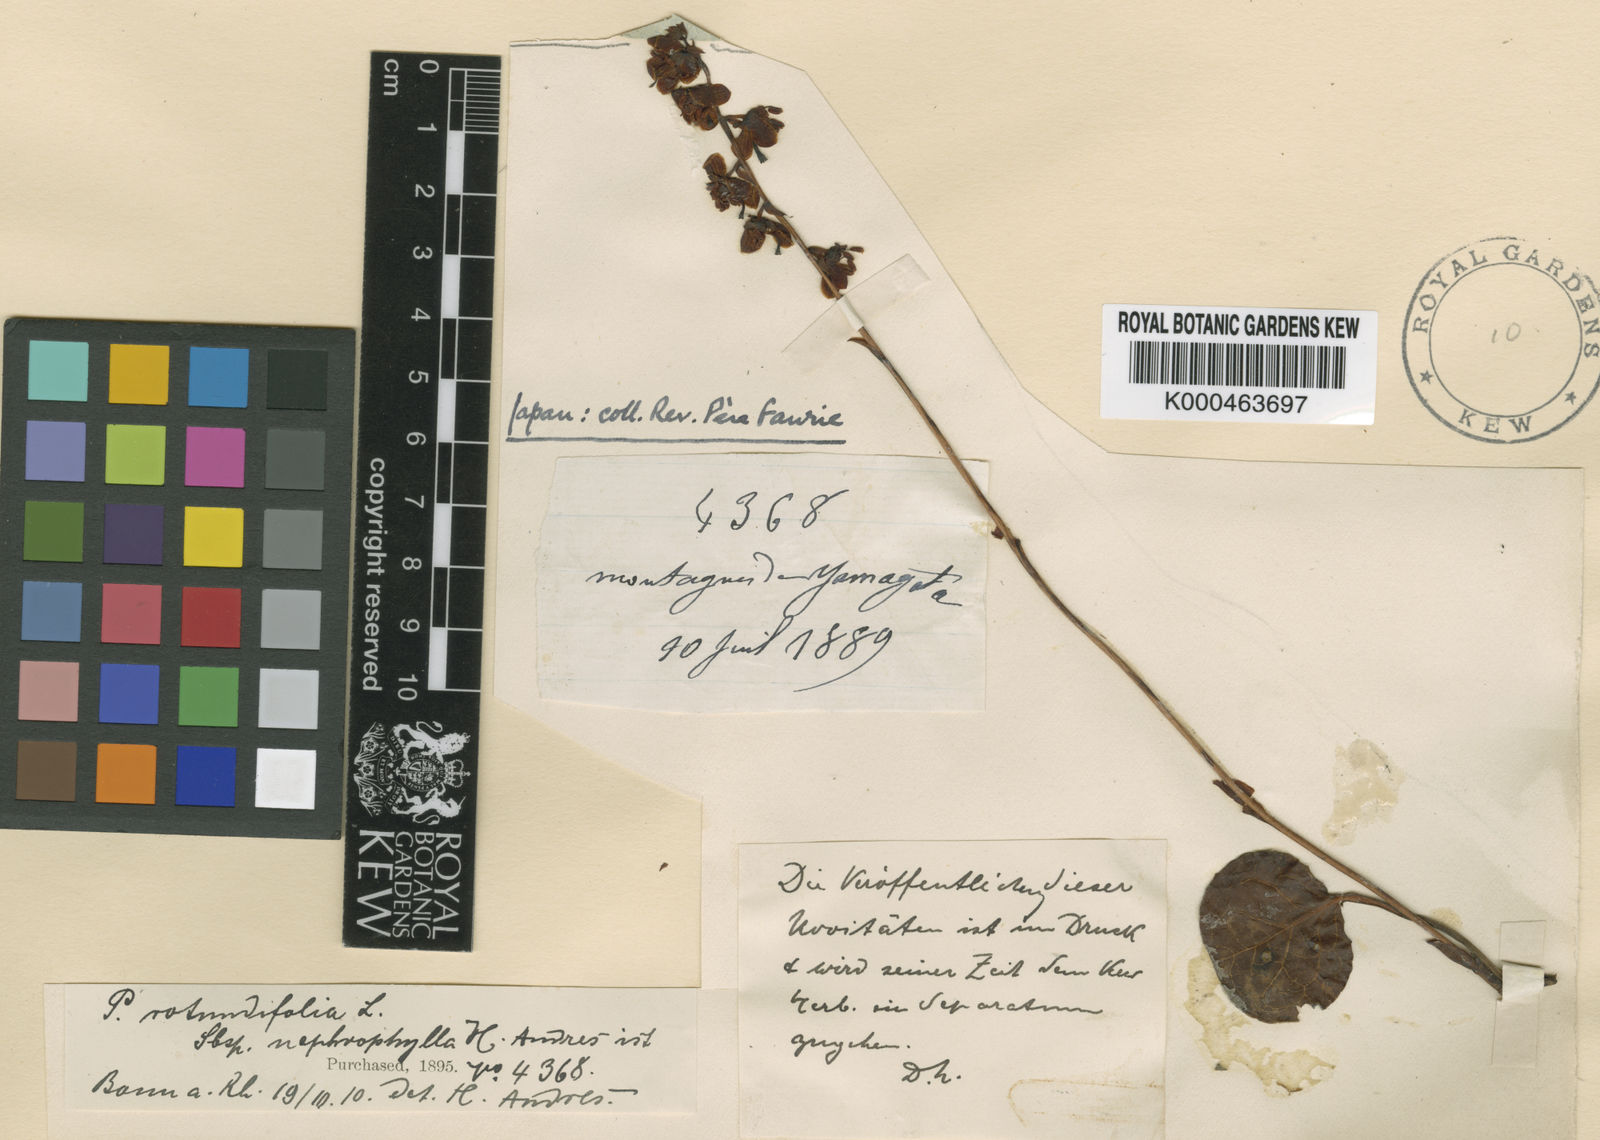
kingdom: Plantae
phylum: Tracheophyta
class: Magnoliopsida
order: Ericales
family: Ericaceae
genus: Pyrola
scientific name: Pyrola nephrophylla
